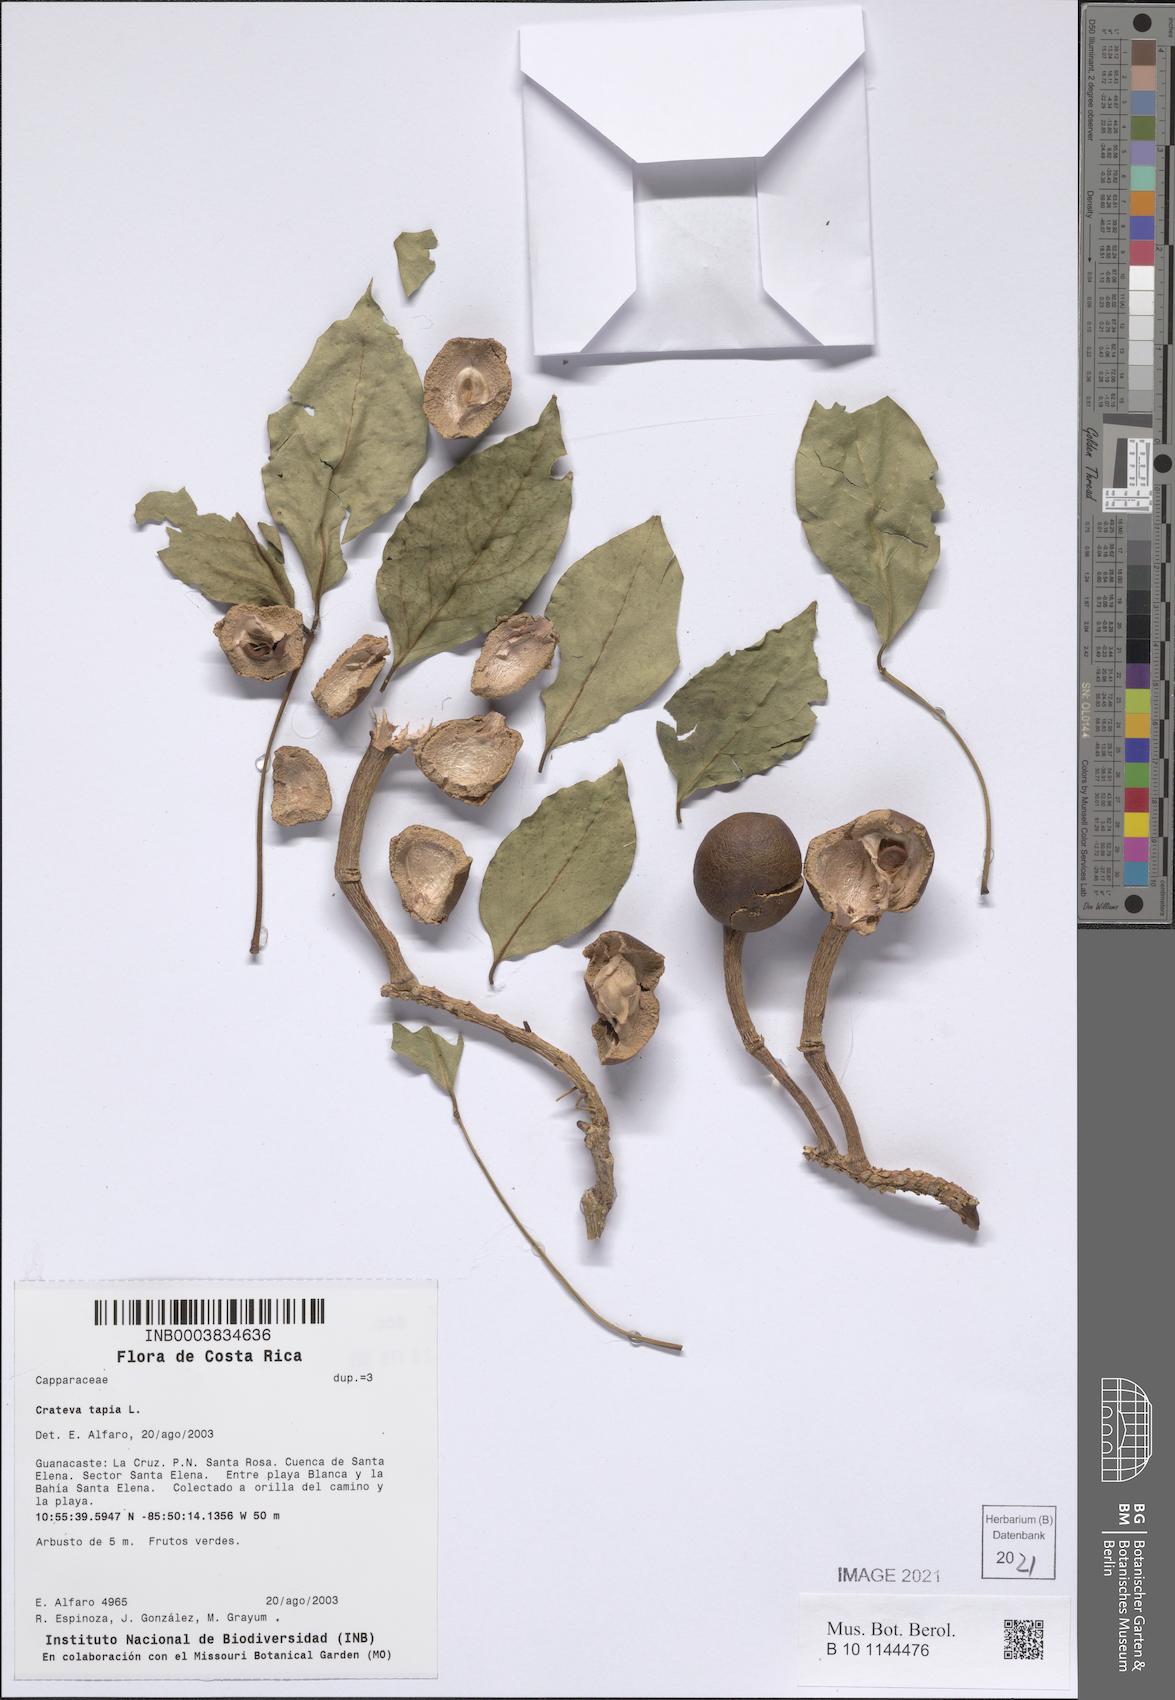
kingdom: Plantae
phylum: Tracheophyta
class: Magnoliopsida
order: Brassicales
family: Capparaceae
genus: Crateva
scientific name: Crateva tapia
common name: Garlic-pear
